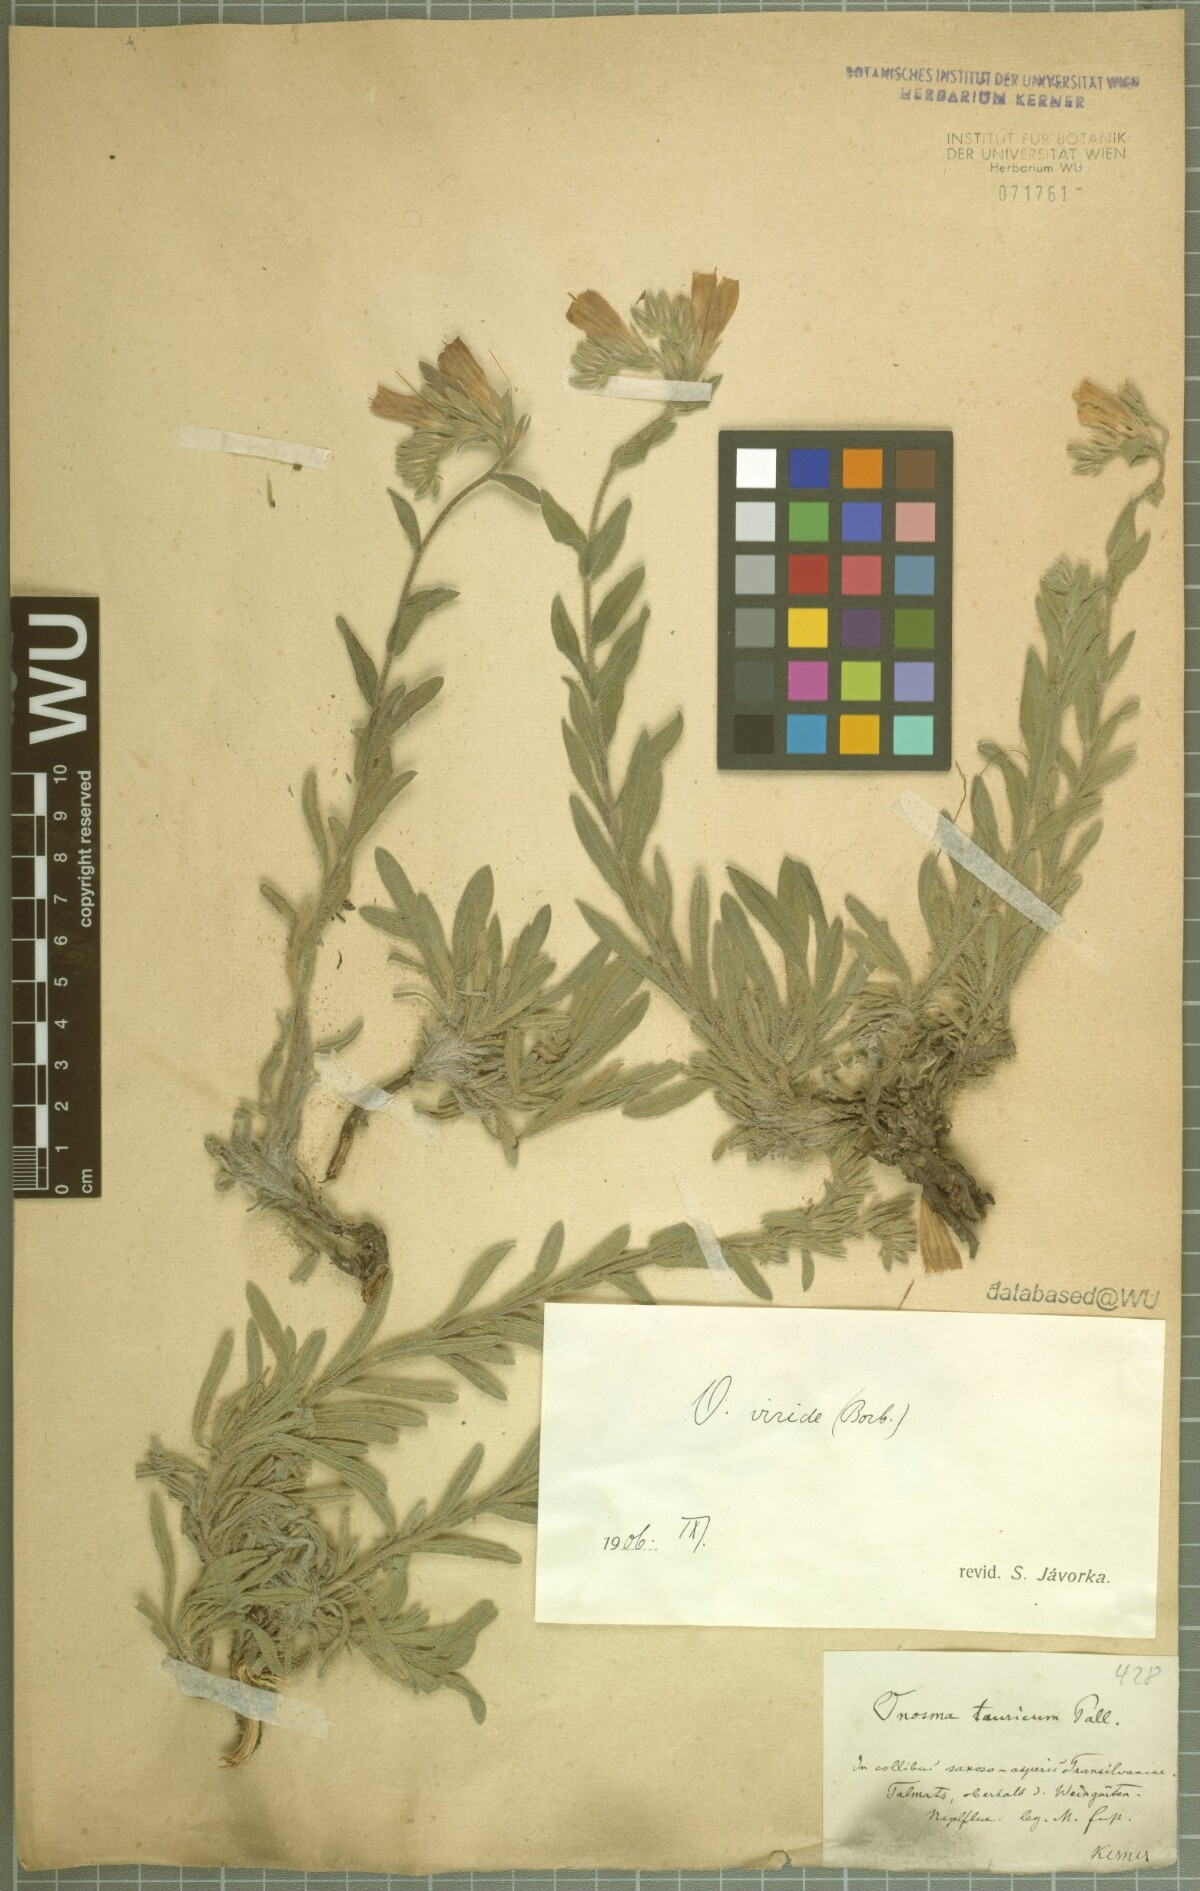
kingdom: Plantae
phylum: Tracheophyta
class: Magnoliopsida
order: Boraginales
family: Boraginaceae
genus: Onosma
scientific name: Onosma viridis
